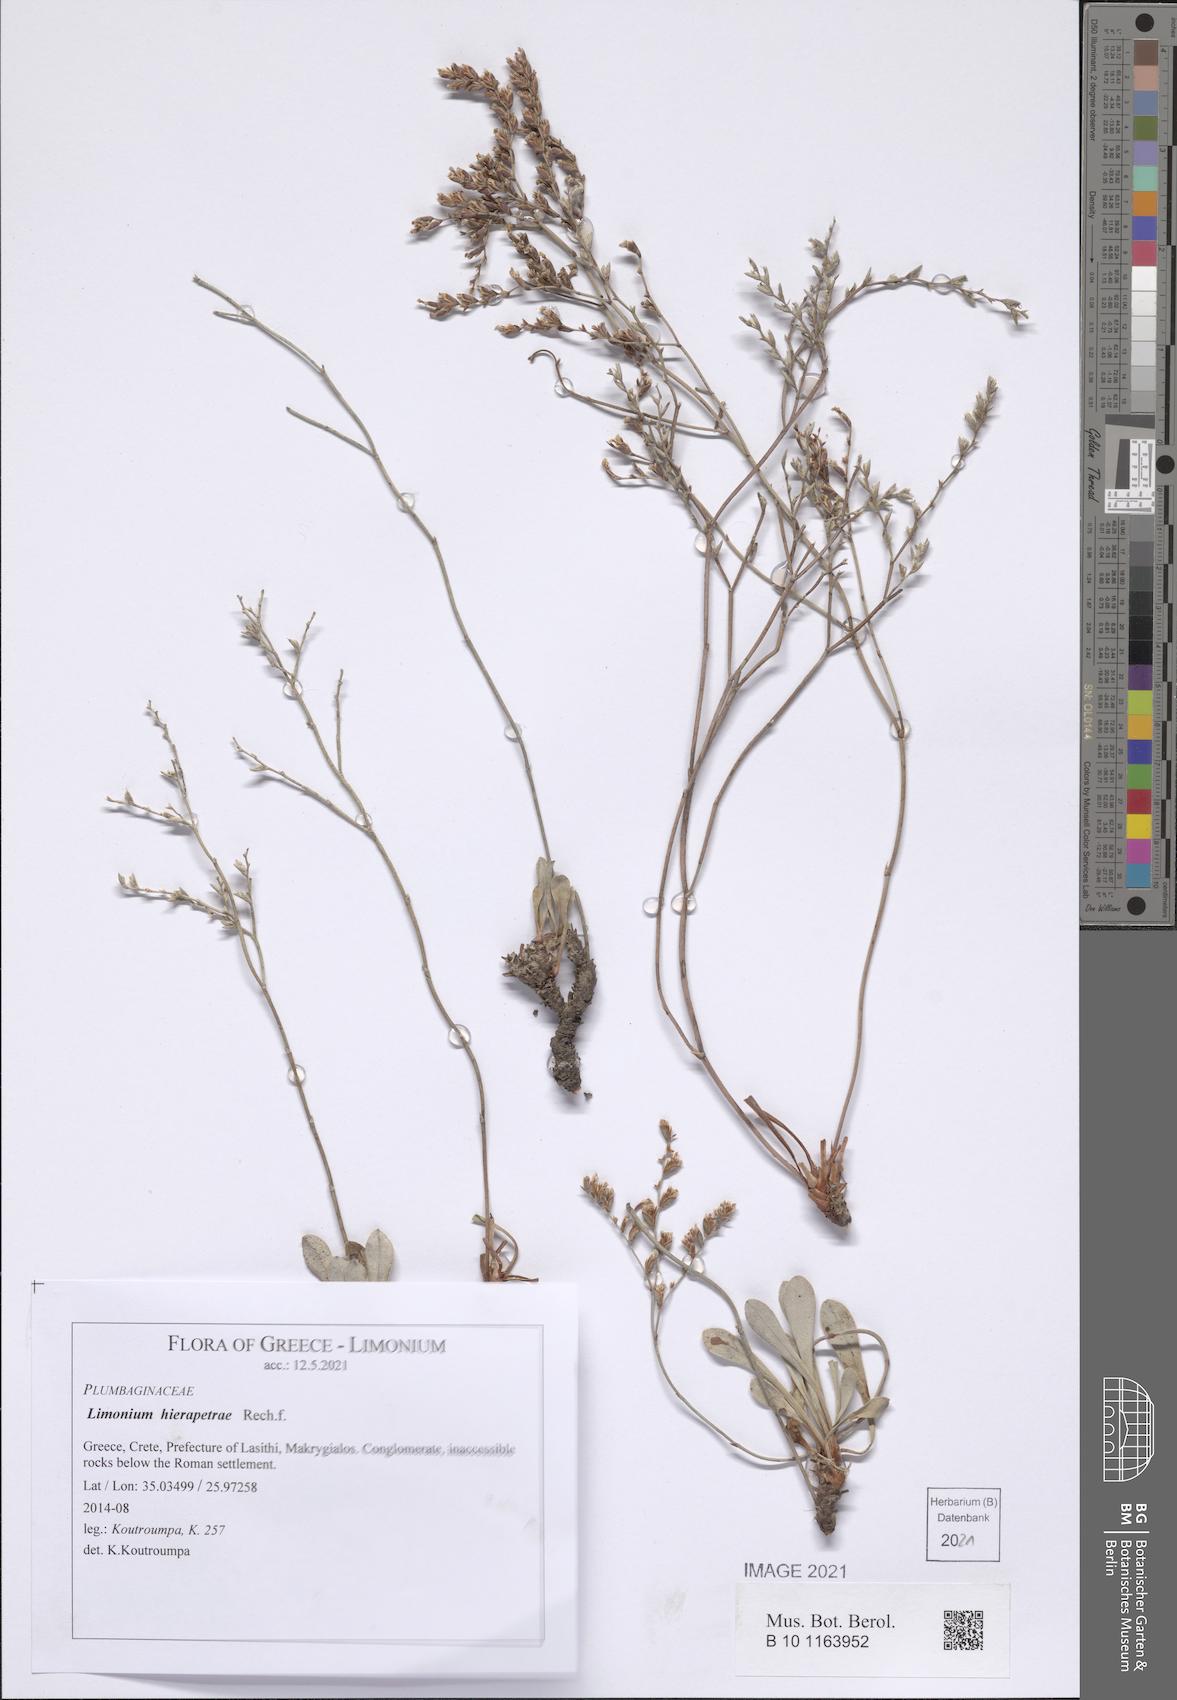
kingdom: Plantae
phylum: Tracheophyta
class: Magnoliopsida
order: Caryophyllales
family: Plumbaginaceae
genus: Limonium
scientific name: Limonium hierapetrae
